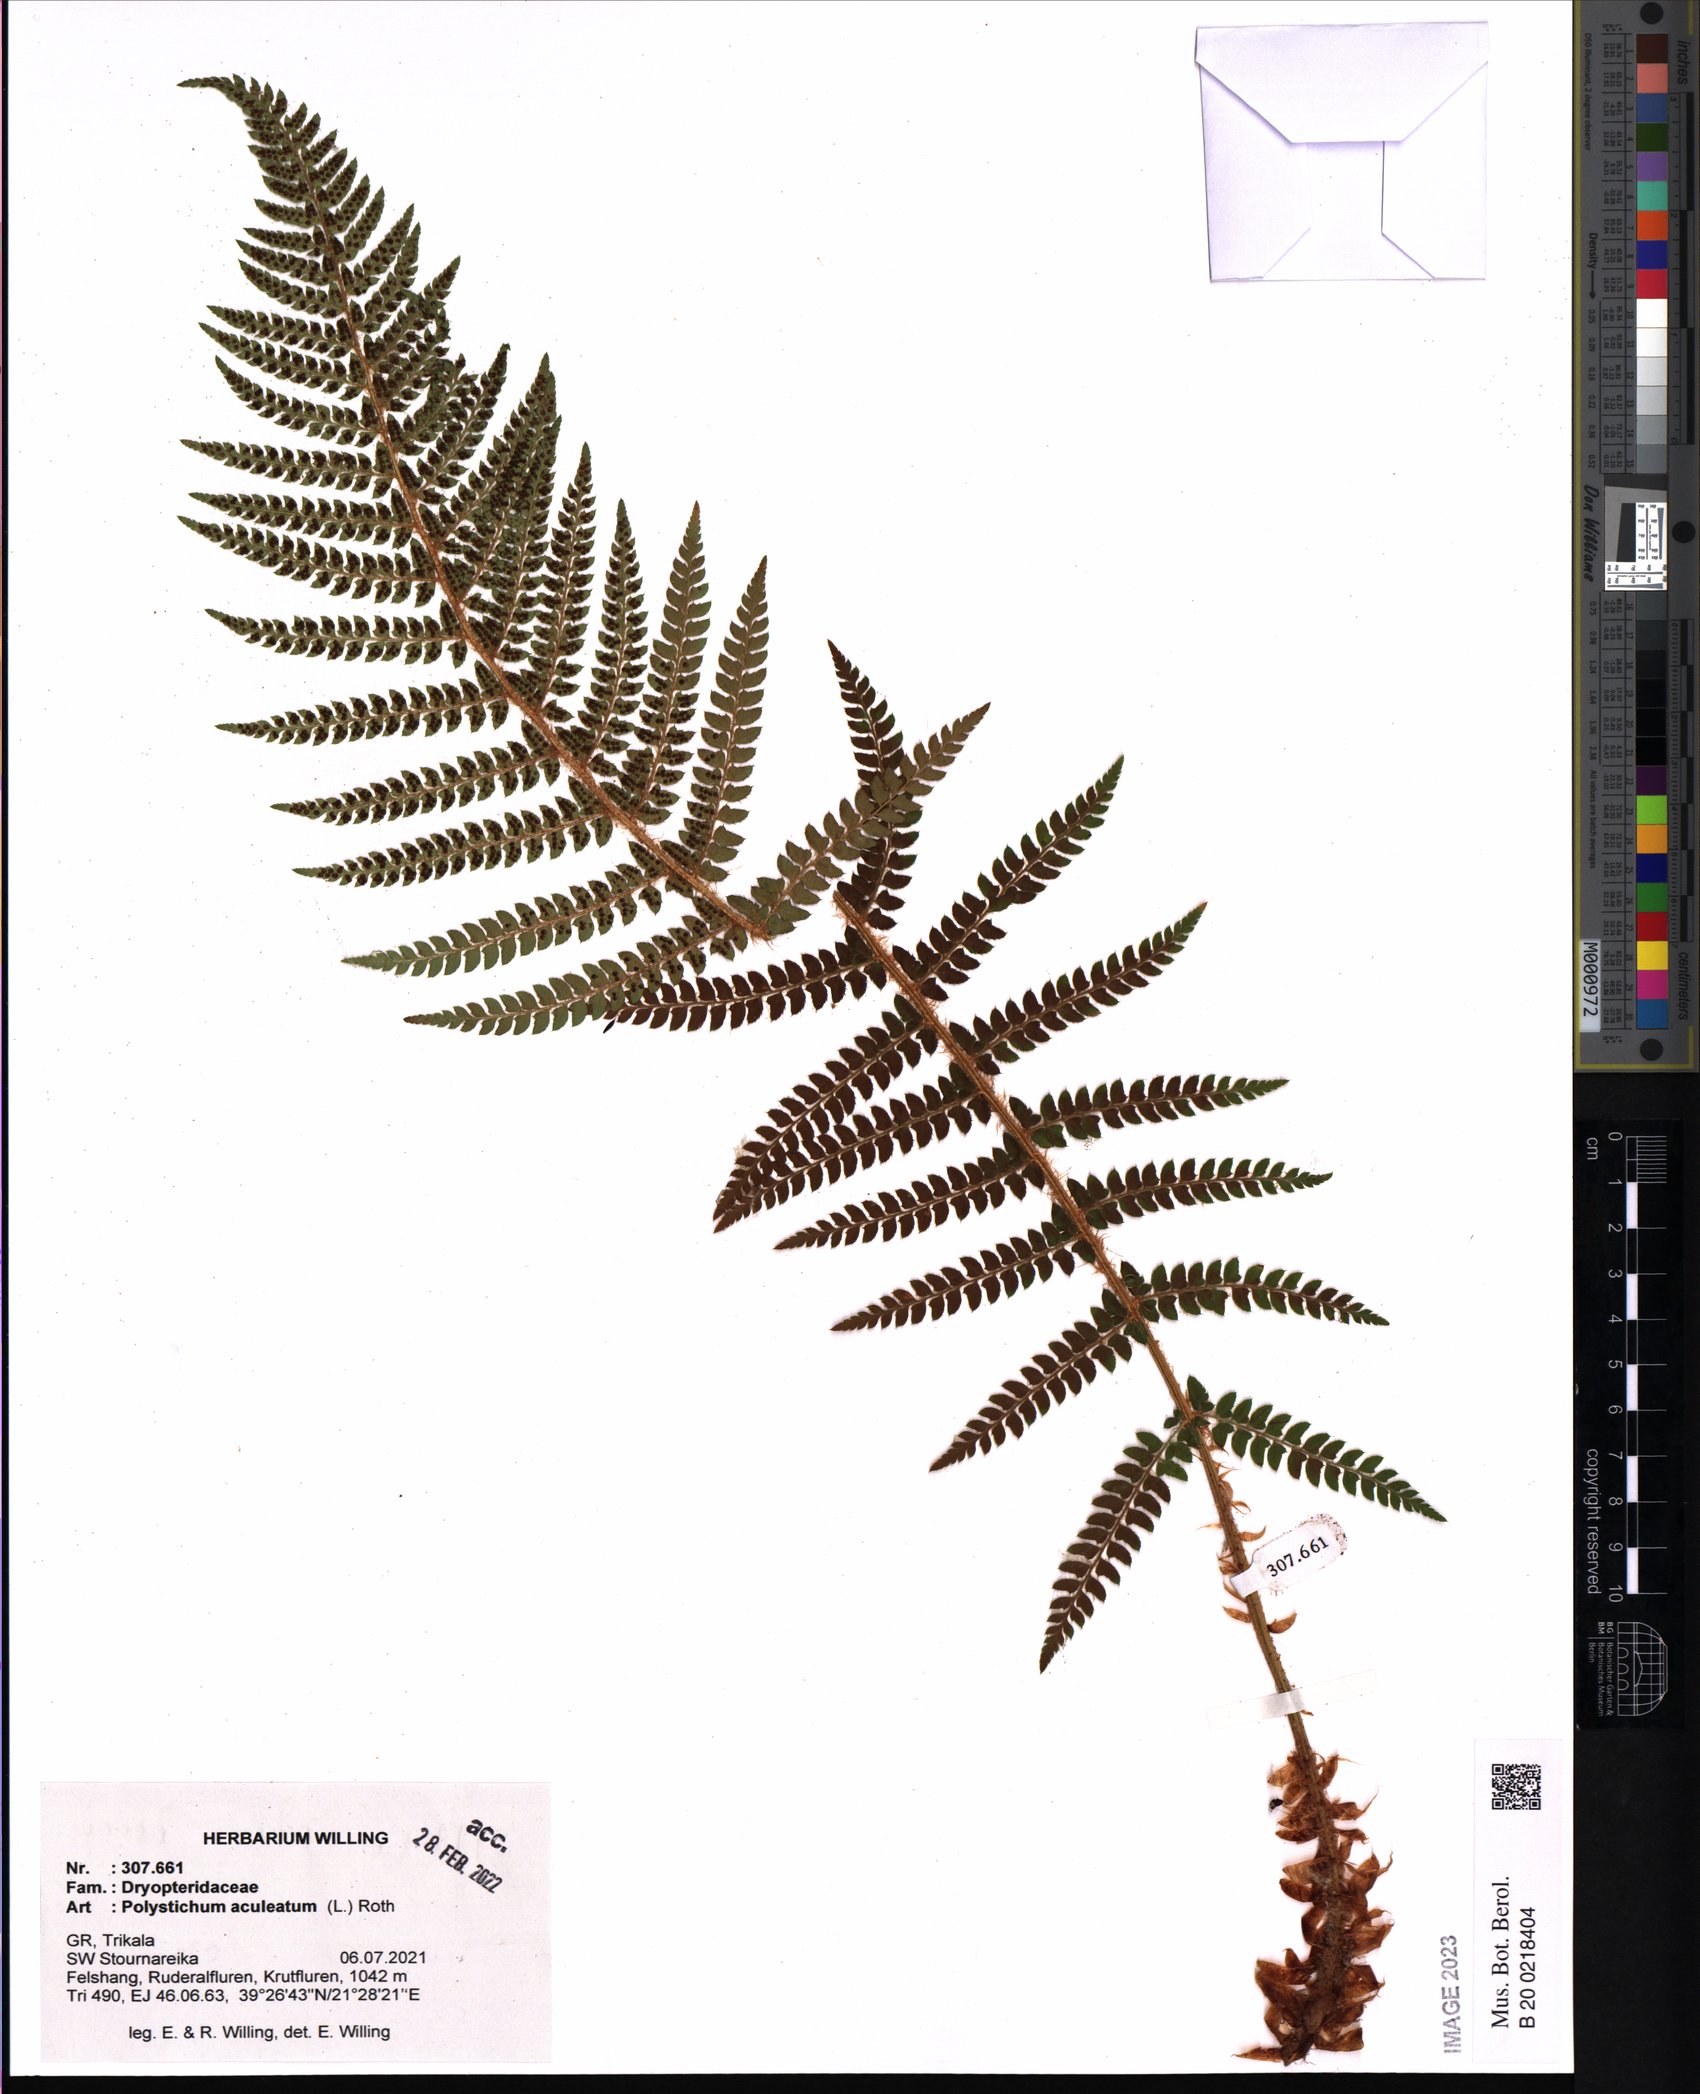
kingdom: Plantae
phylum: Tracheophyta
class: Polypodiopsida
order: Polypodiales
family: Dryopteridaceae
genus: Polystichum
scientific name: Polystichum aculeatum
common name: Hard shield-fern
